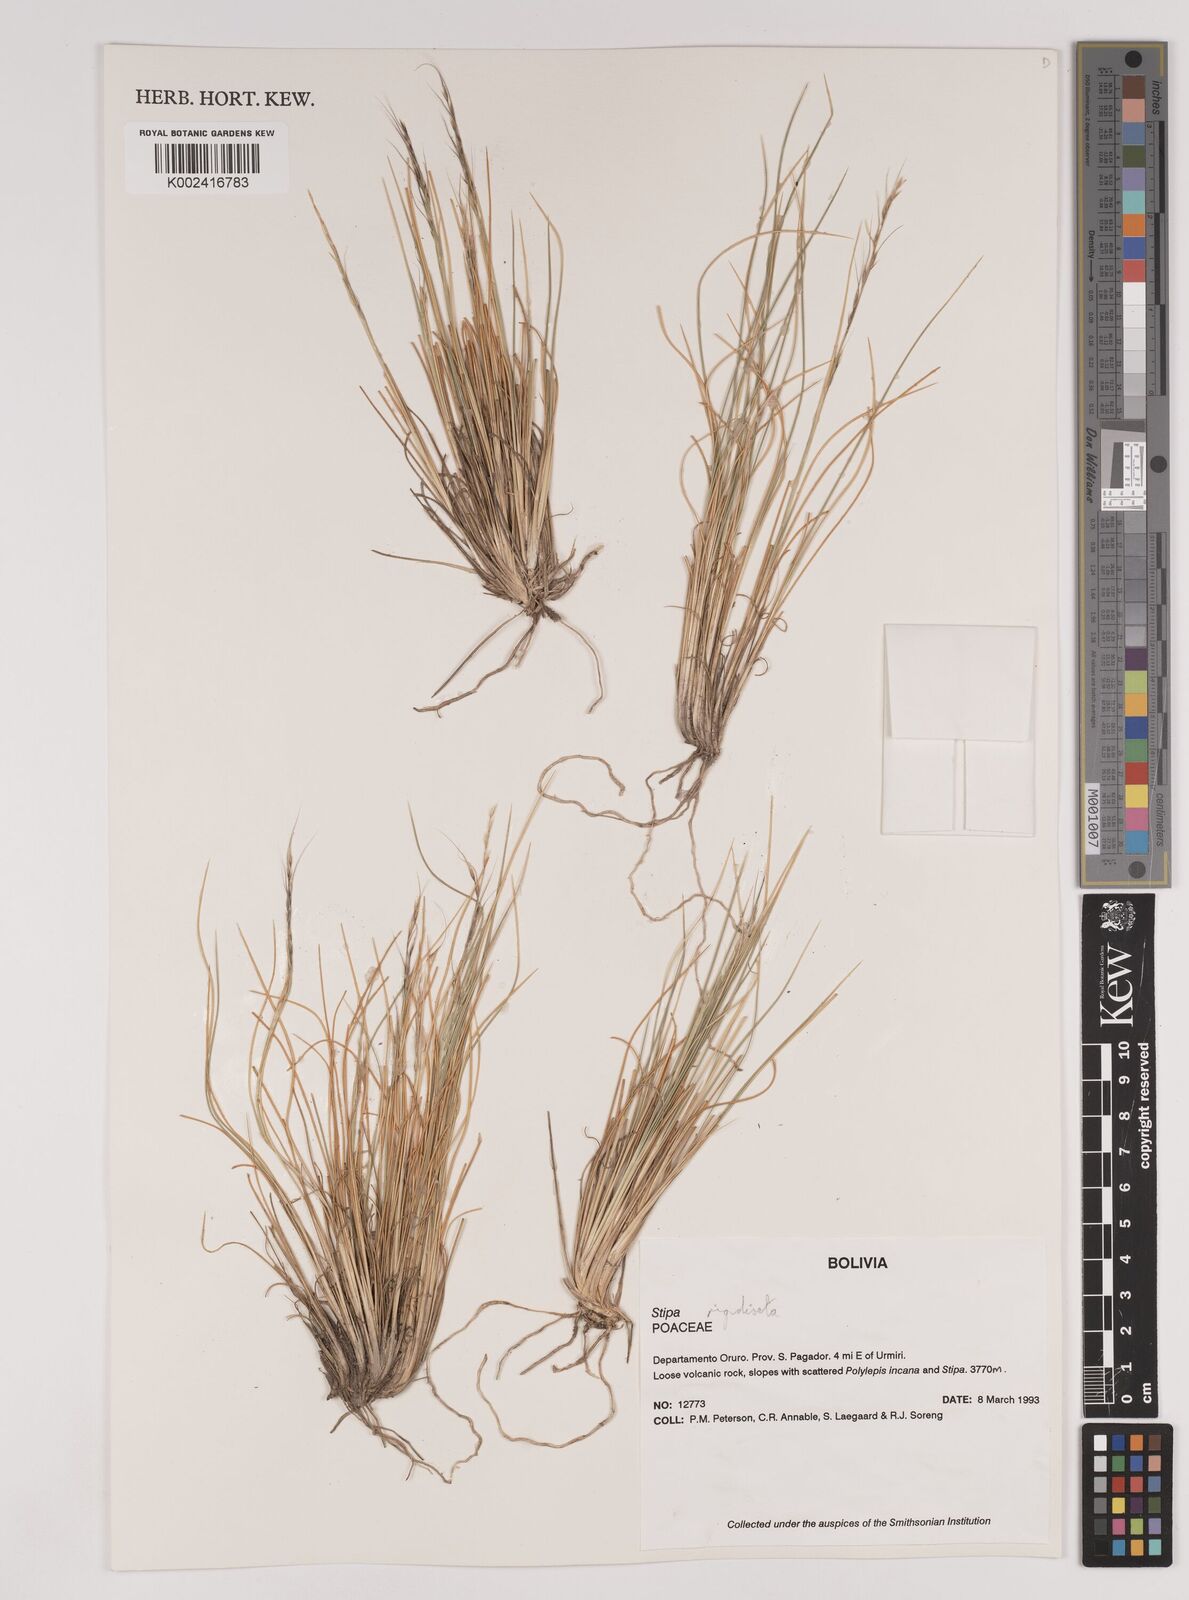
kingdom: Plantae
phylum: Tracheophyta
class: Liliopsida
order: Poales
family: Poaceae
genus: Stipa
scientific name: Stipa rigidiseta
